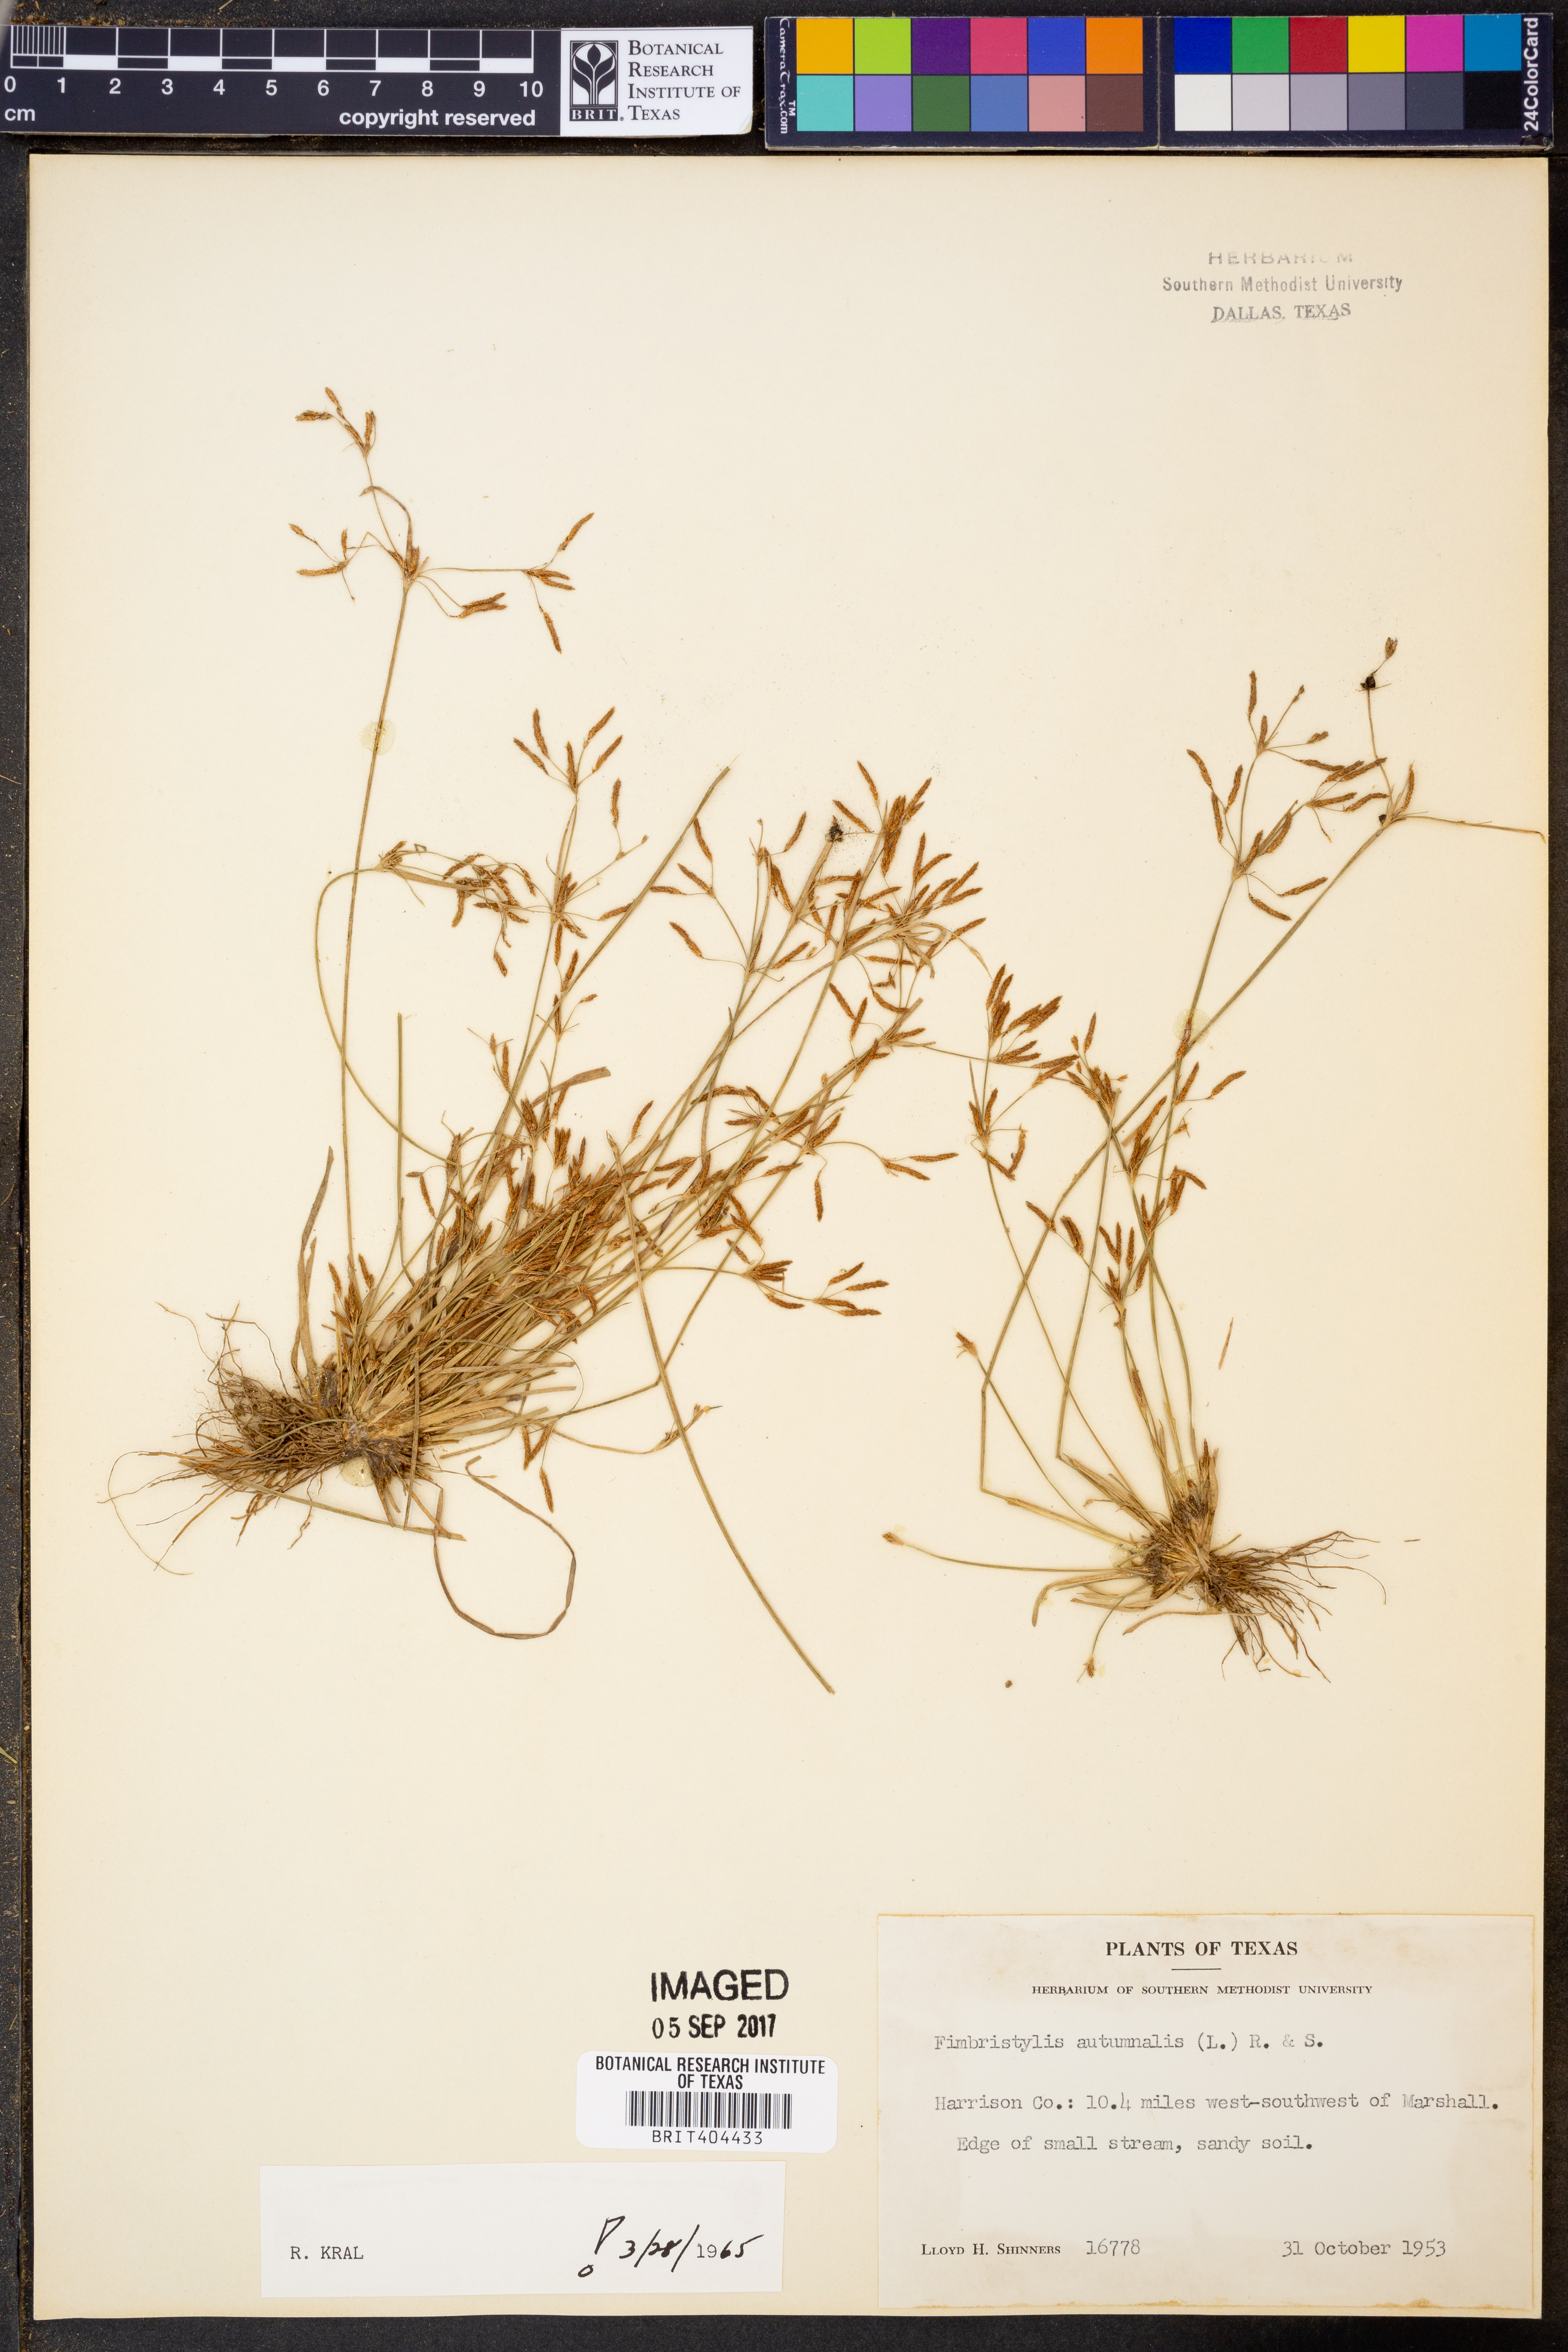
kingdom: Plantae
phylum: Tracheophyta
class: Liliopsida
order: Poales
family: Cyperaceae
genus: Fimbristylis
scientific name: Fimbristylis autumnalis
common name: Slender fimbristylis
